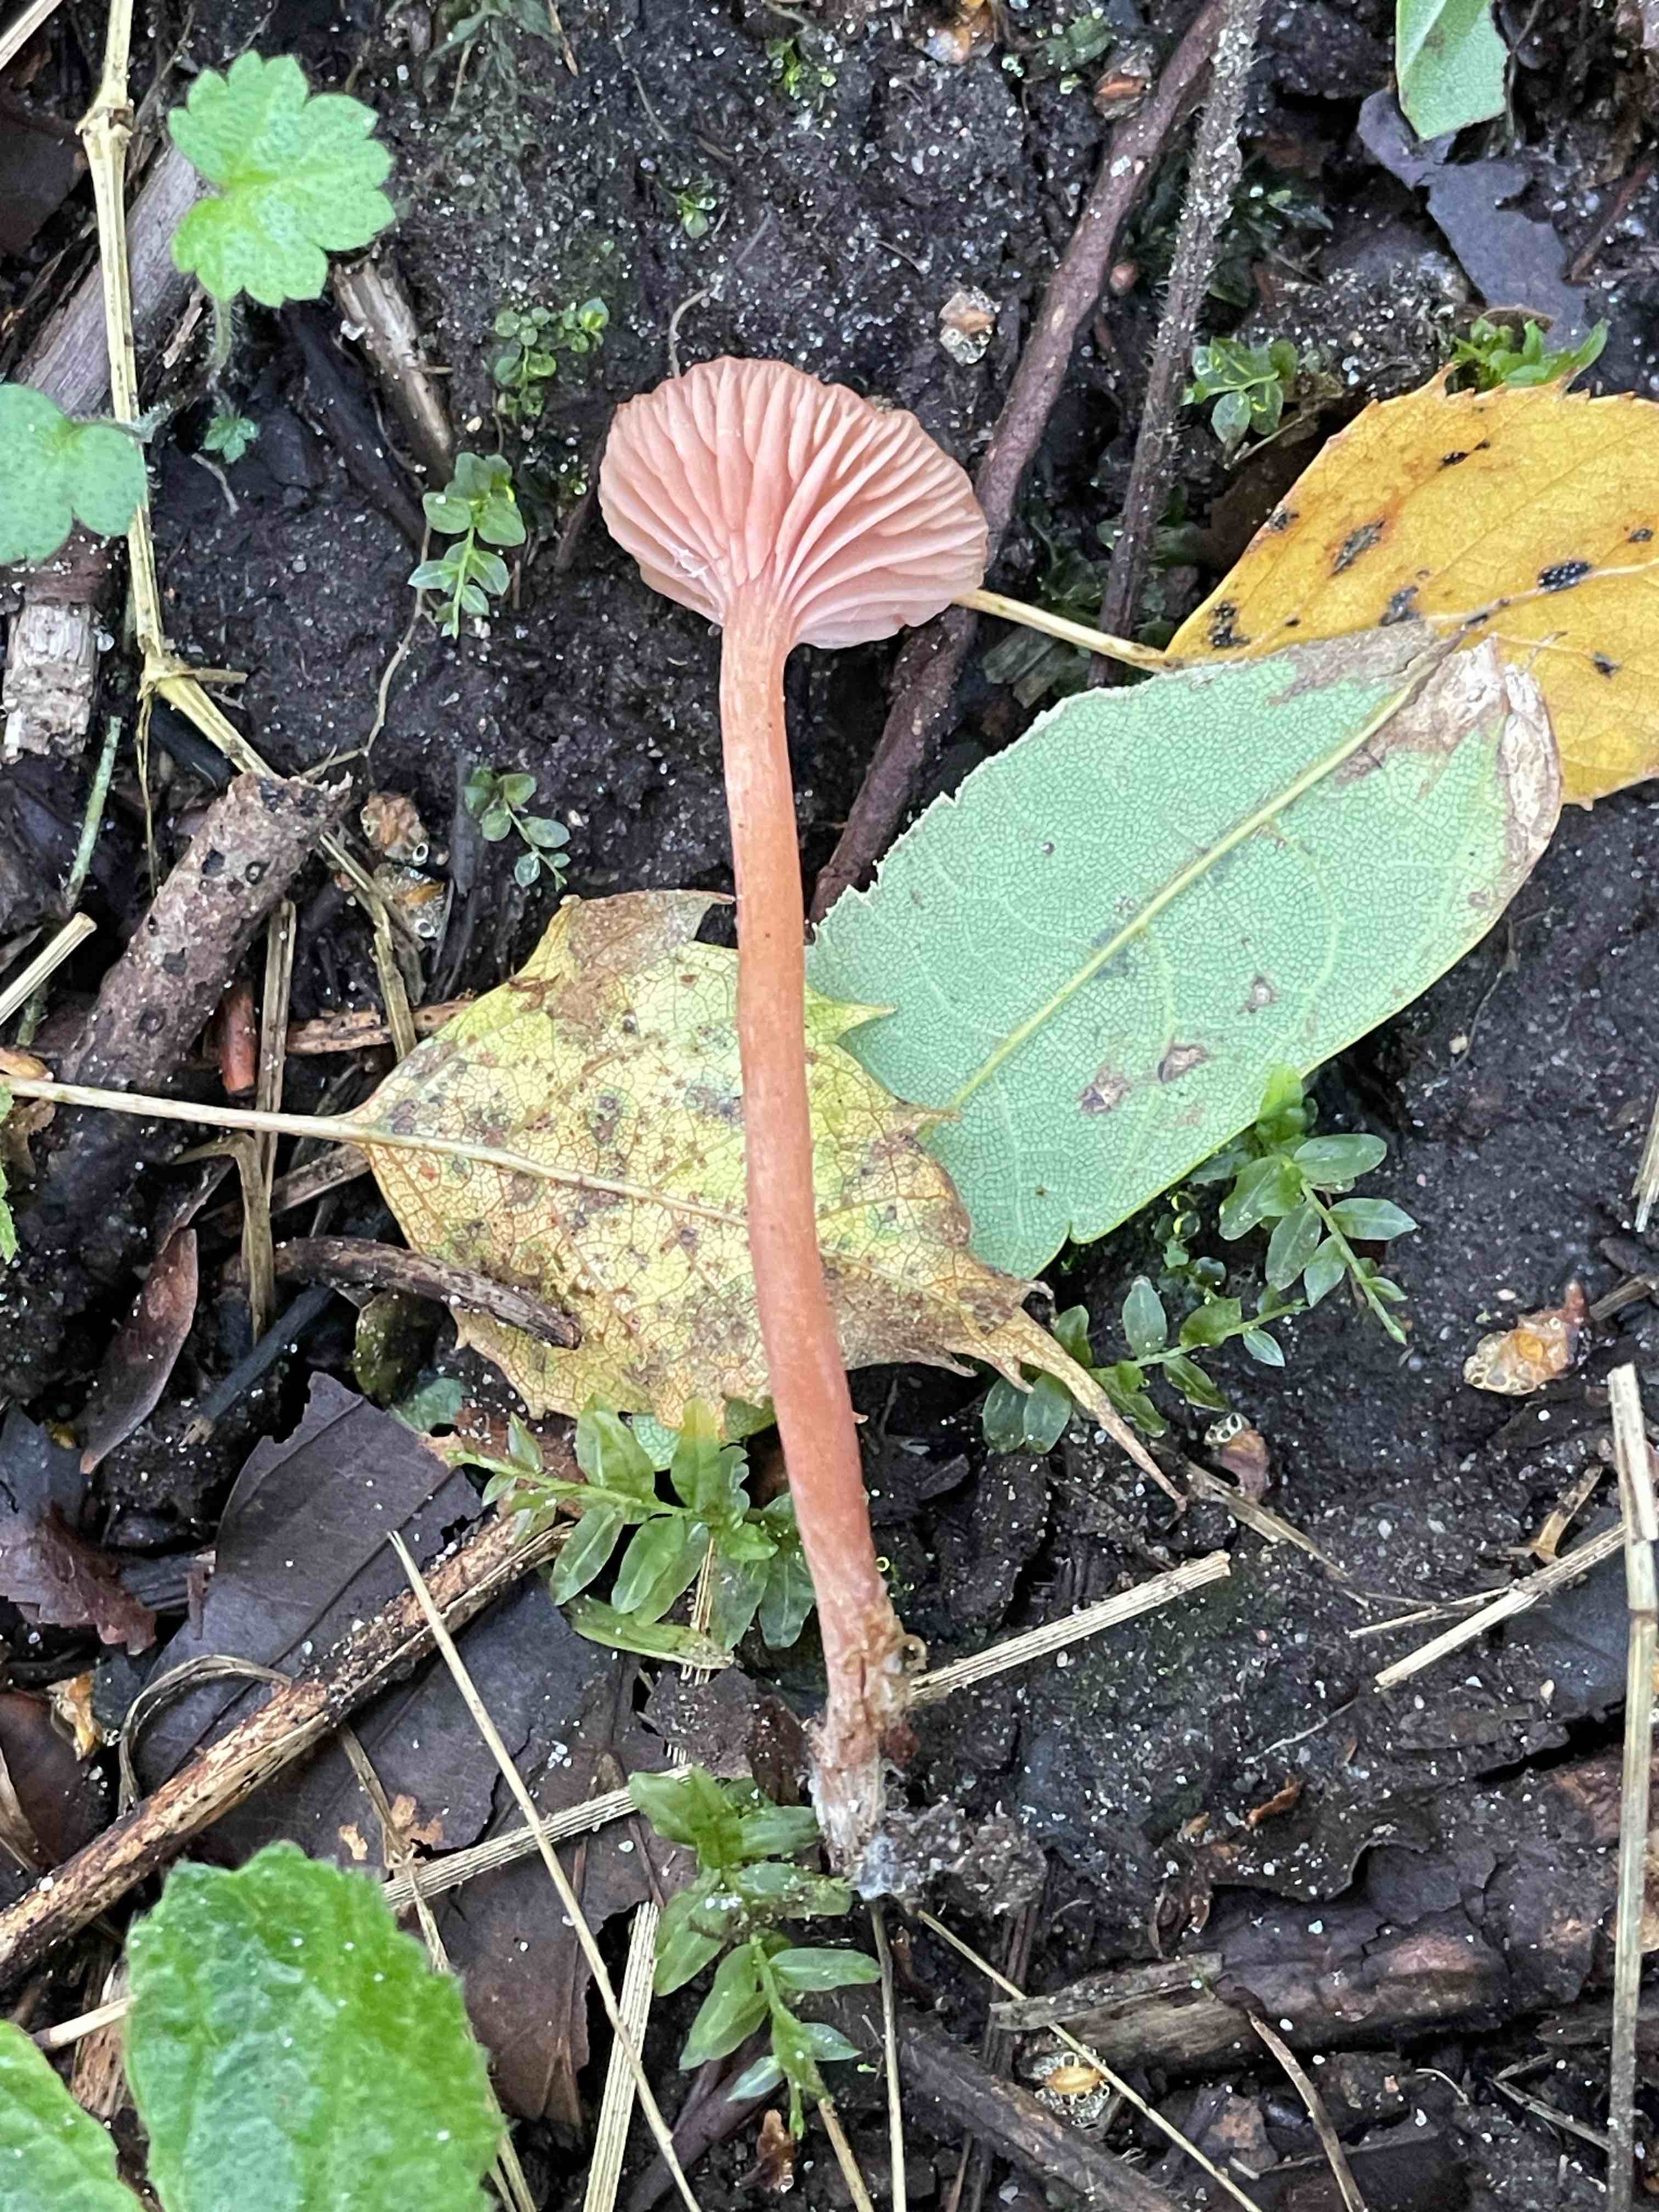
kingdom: Fungi
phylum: Basidiomycota
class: Agaricomycetes
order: Agaricales
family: Hydnangiaceae
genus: Laccaria
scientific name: Laccaria laccata
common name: rød ametysthat
